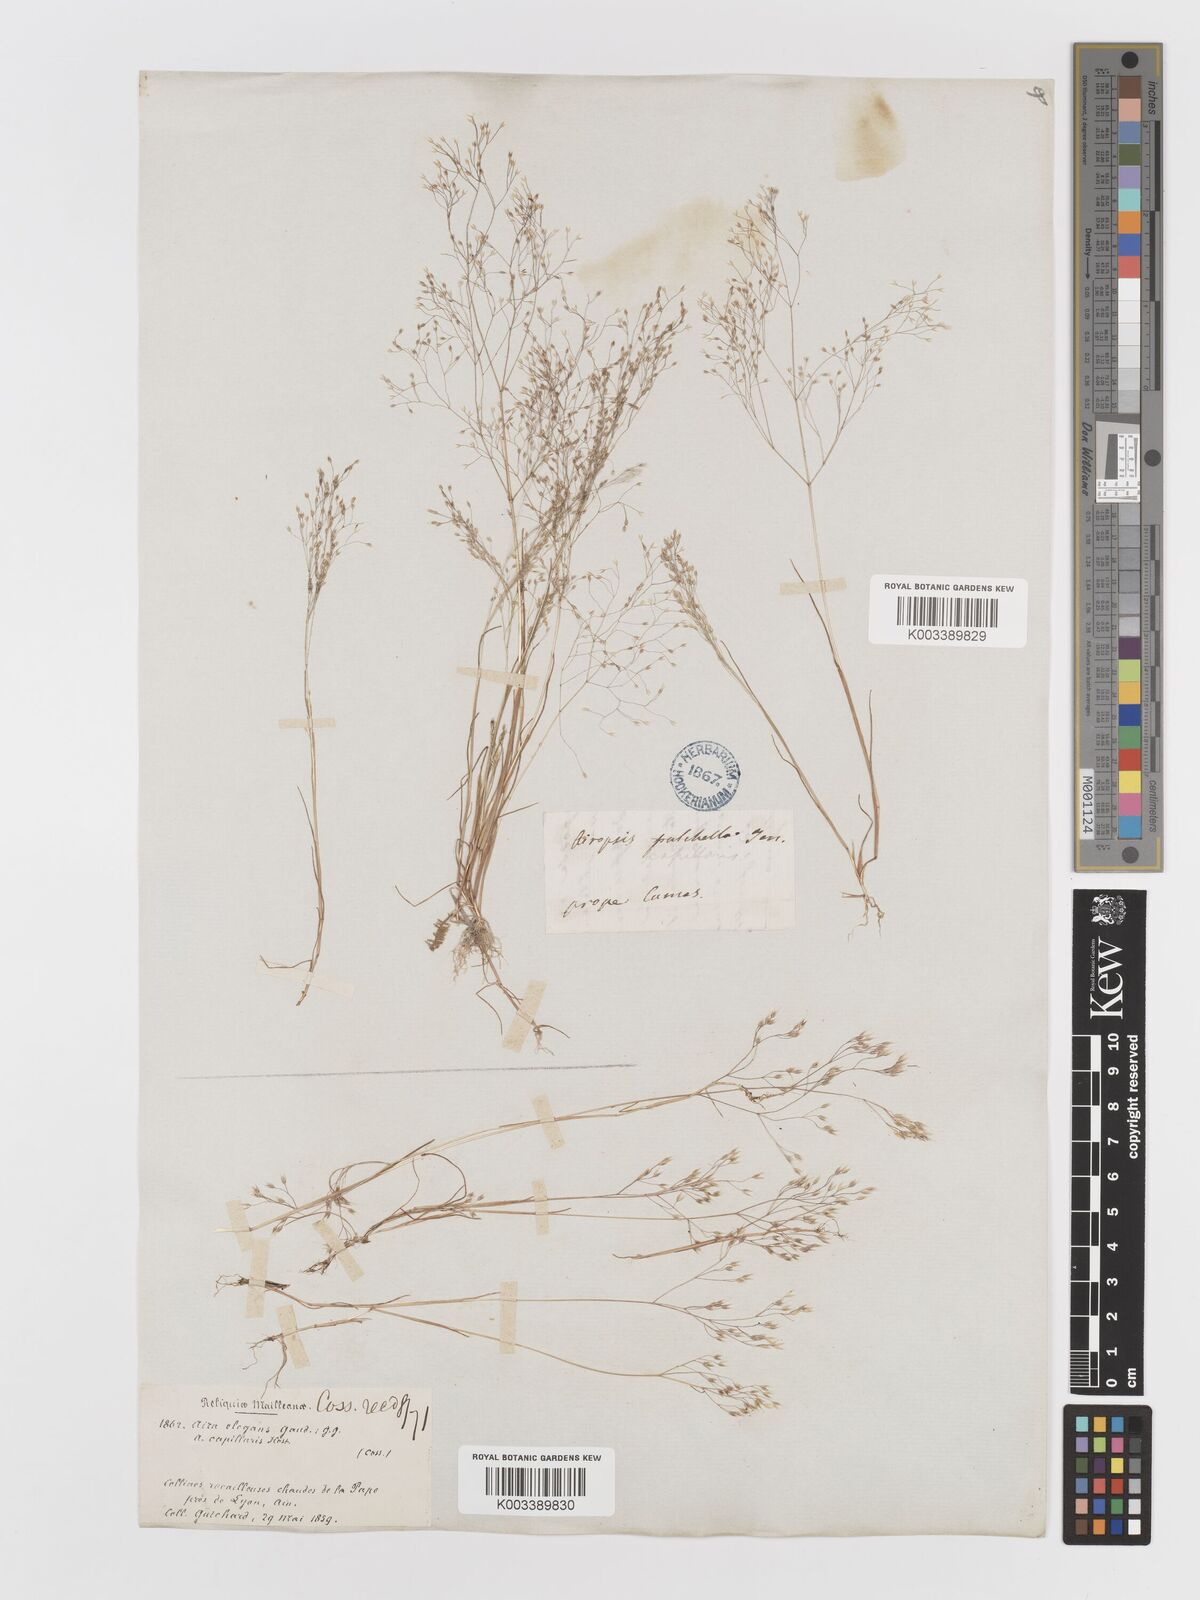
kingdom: Plantae
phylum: Tracheophyta
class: Liliopsida
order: Poales
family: Poaceae
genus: Aira
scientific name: Aira elegans
